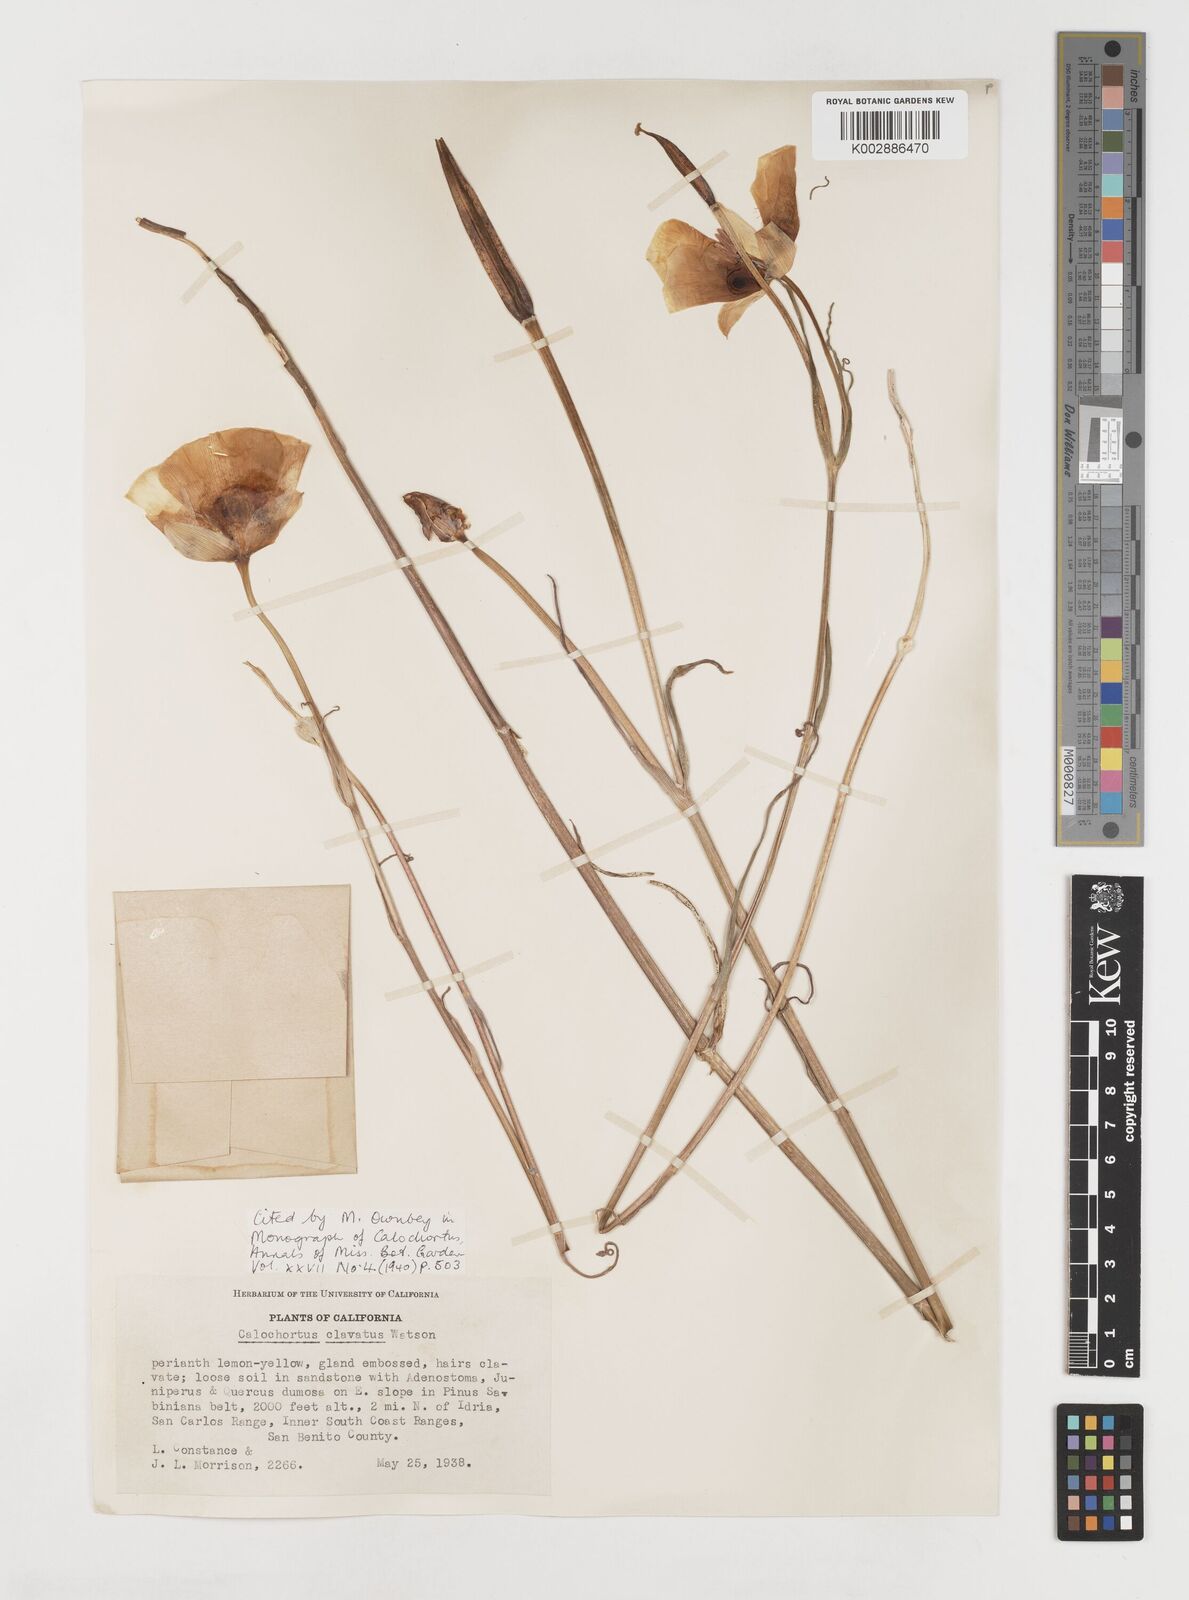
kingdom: Plantae
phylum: Tracheophyta
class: Liliopsida
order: Liliales
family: Liliaceae
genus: Calochortus
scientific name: Calochortus clavatus
